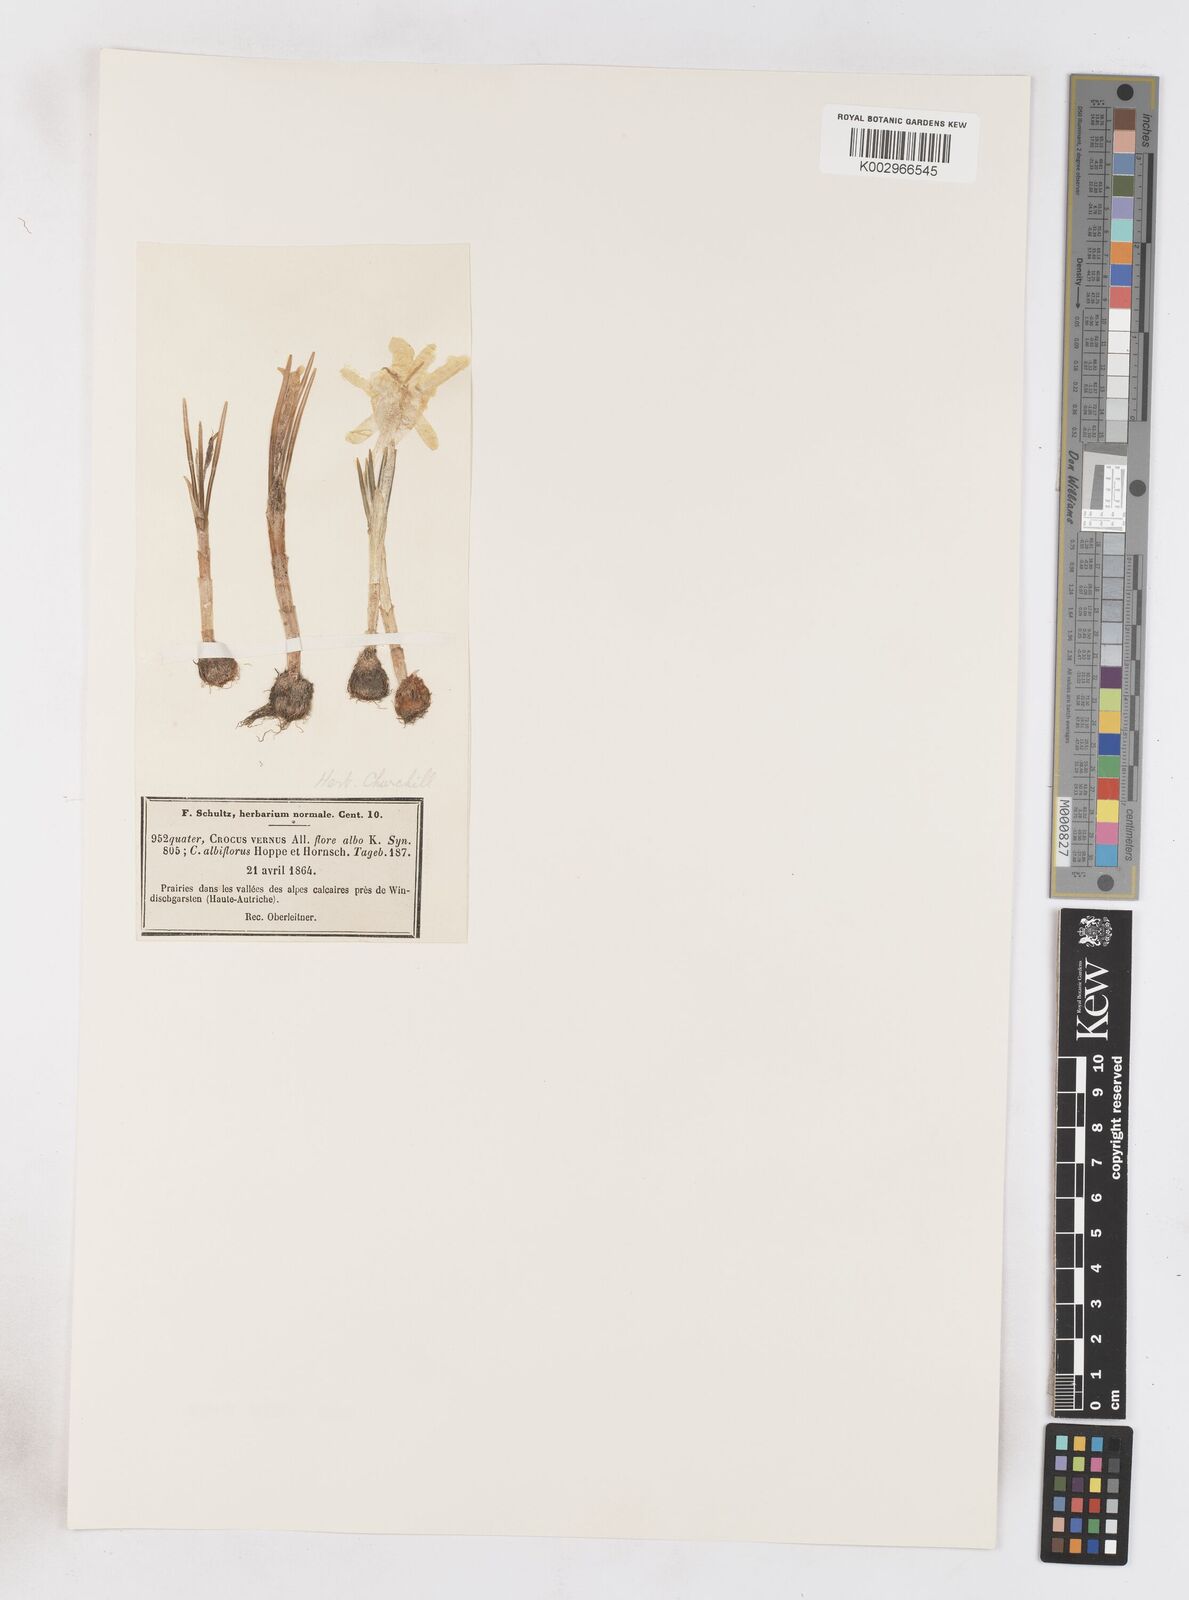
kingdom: Plantae
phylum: Tracheophyta
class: Liliopsida
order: Asparagales
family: Iridaceae
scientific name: Iridaceae
